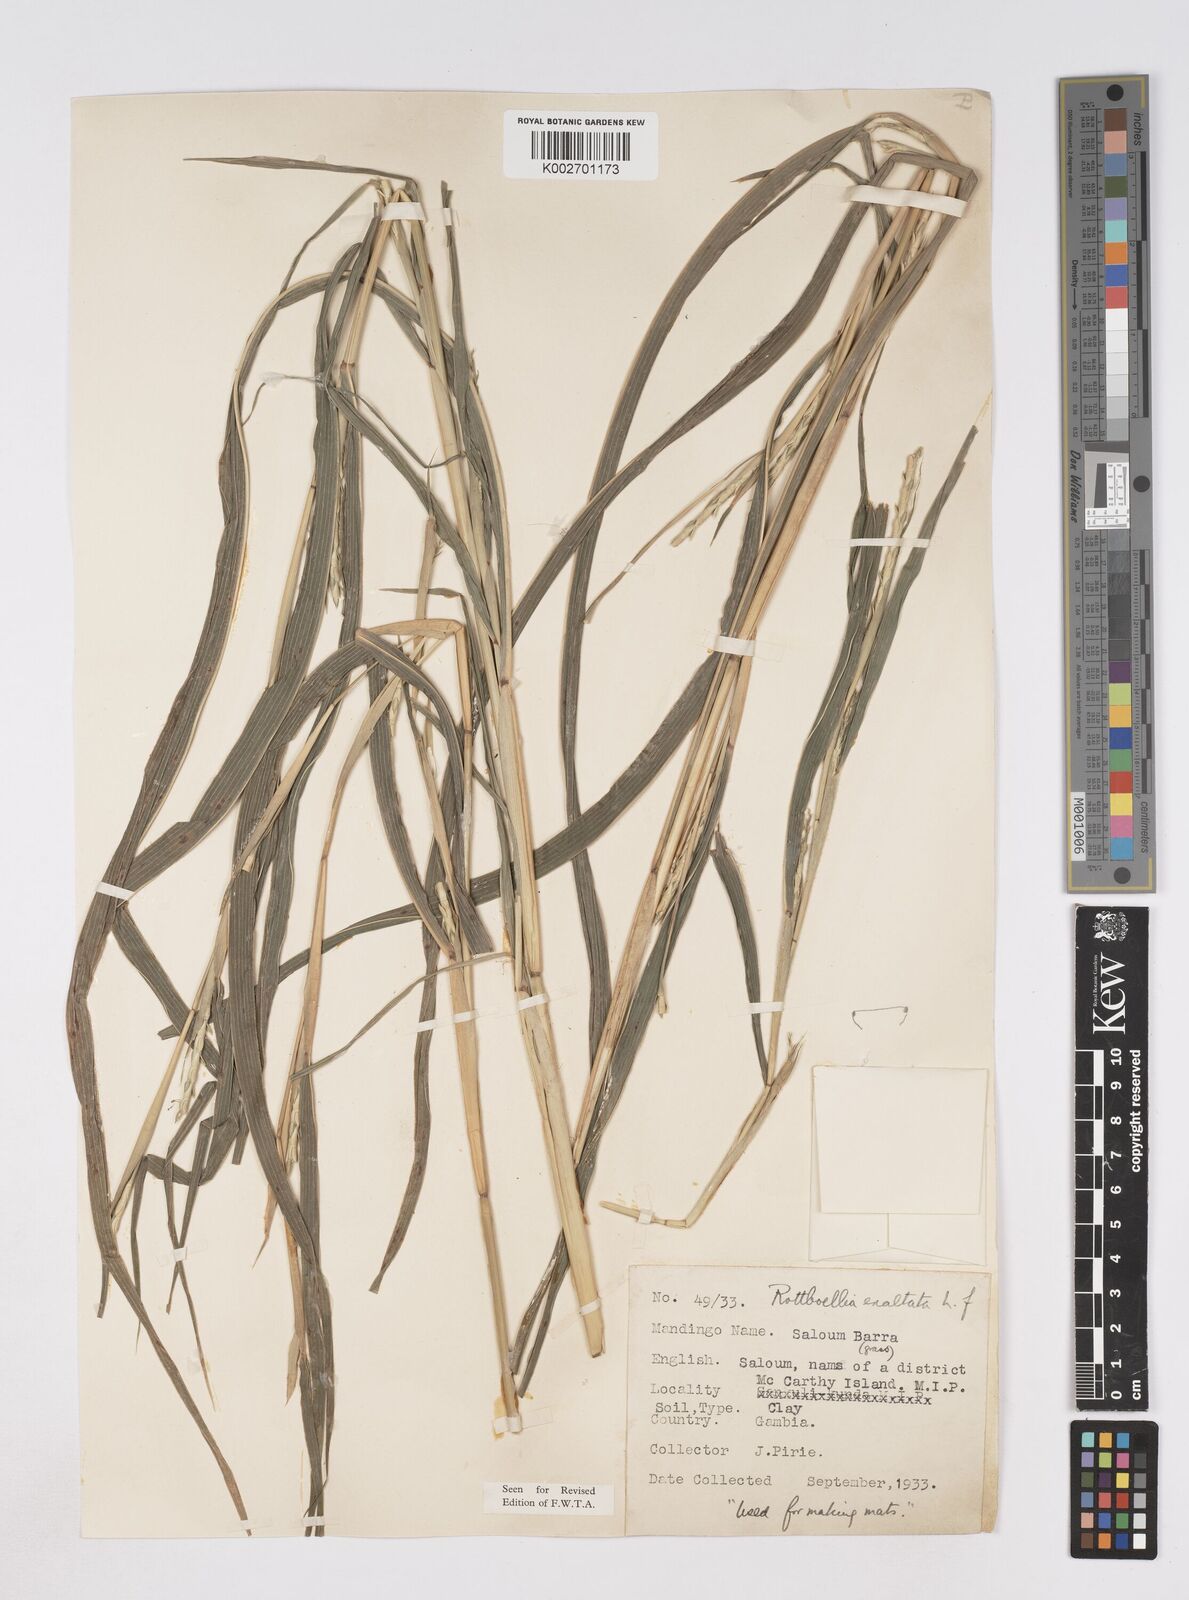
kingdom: Plantae
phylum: Tracheophyta
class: Liliopsida
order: Poales
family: Poaceae
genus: Ophiuros
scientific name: Ophiuros exaltatus
